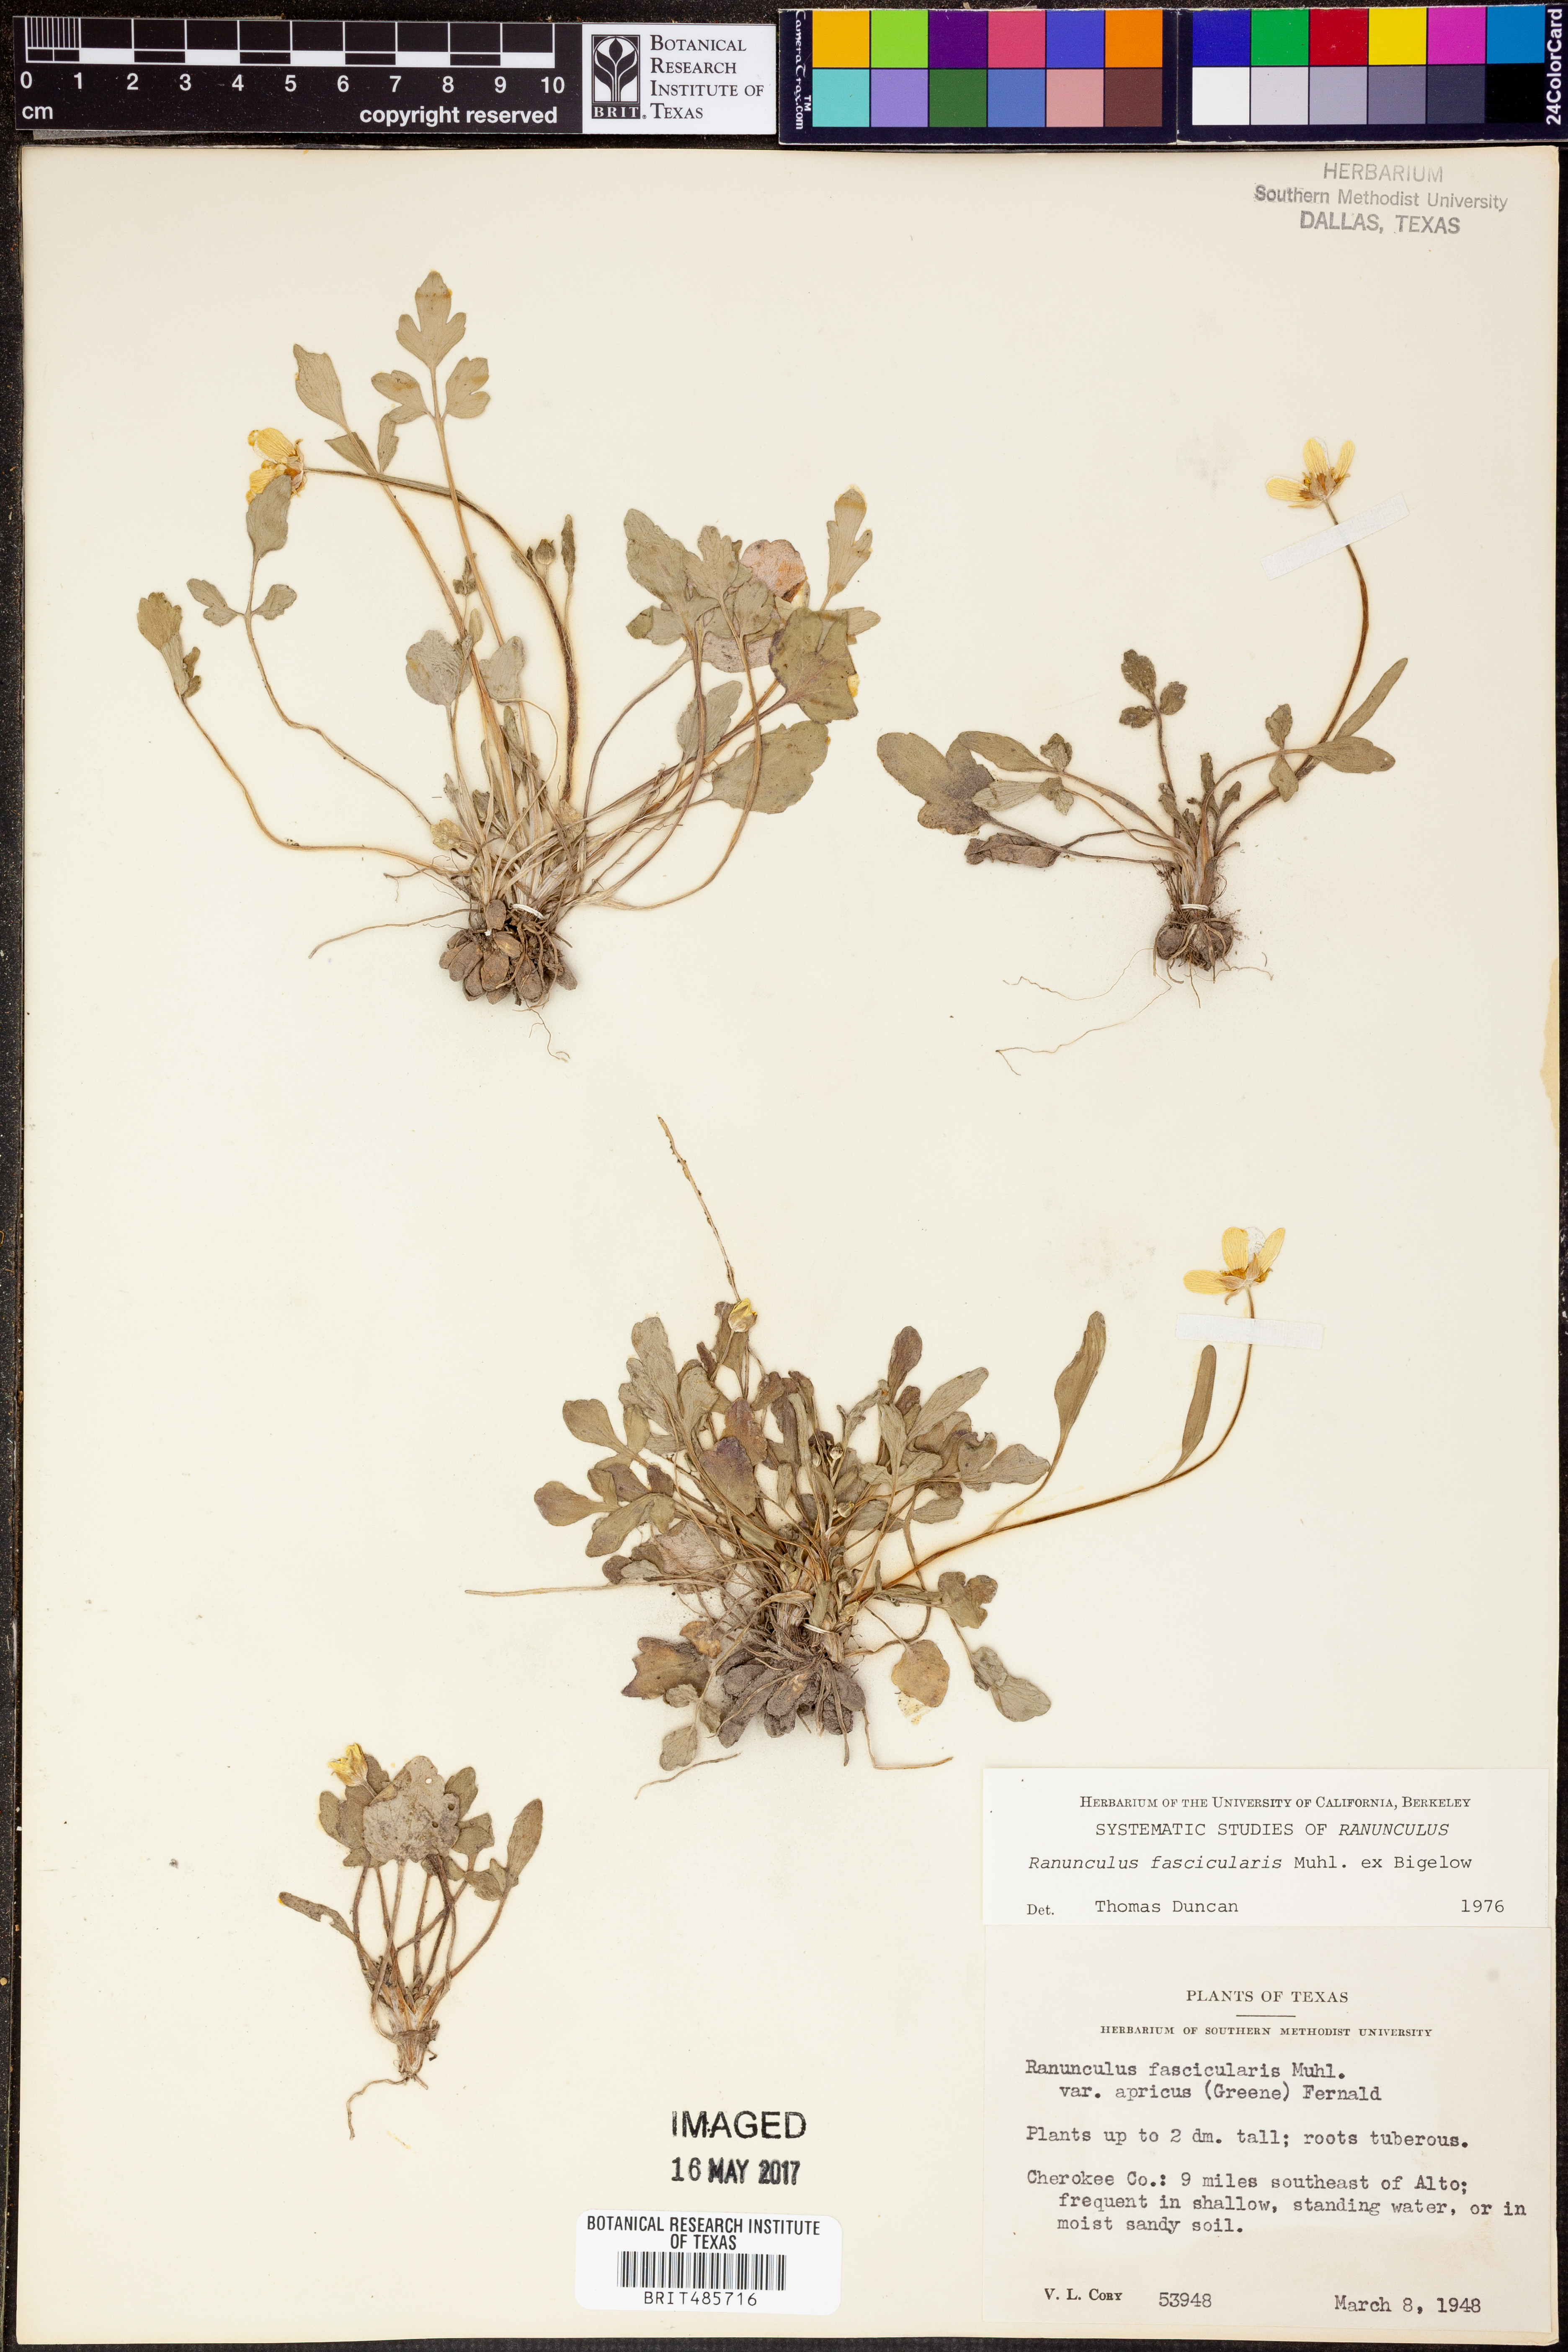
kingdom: Plantae
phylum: Tracheophyta
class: Magnoliopsida
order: Ranunculales
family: Ranunculaceae
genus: Ranunculus
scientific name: Ranunculus fascicularis
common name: Early buttercup
